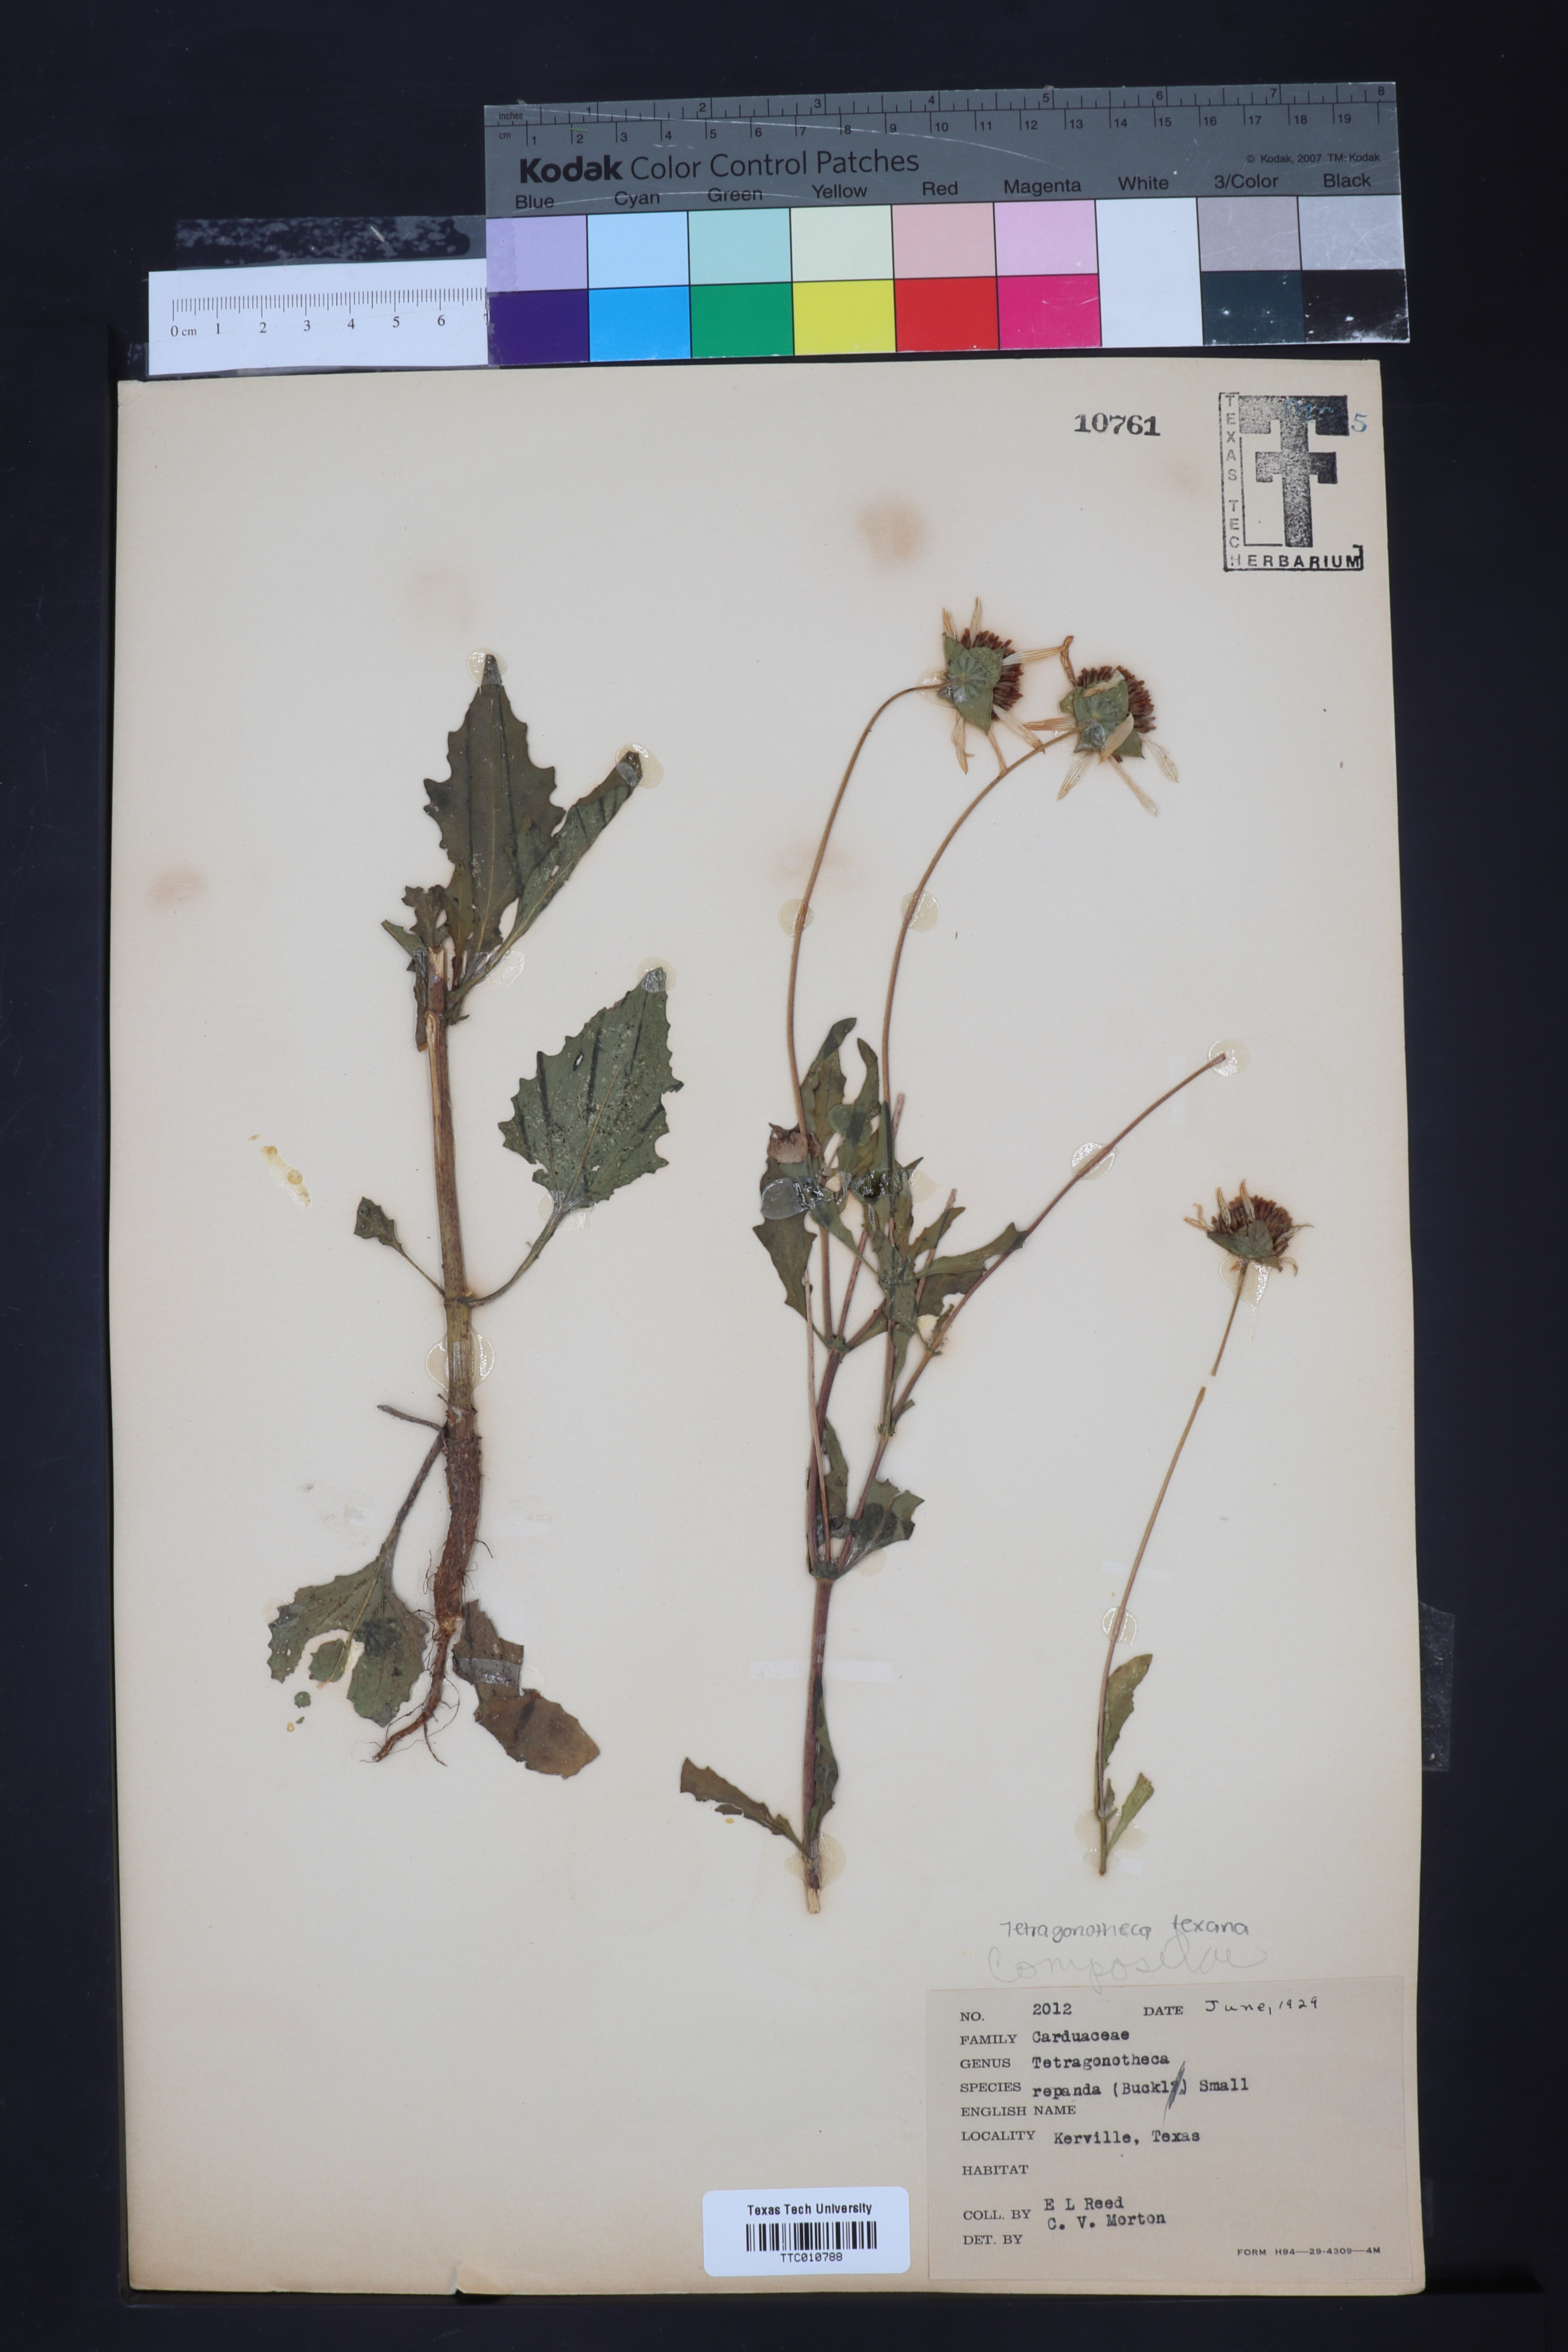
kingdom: Plantae
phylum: Tracheophyta
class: Magnoliopsida
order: Asterales
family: Asteraceae
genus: Tetragonotheca
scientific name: Tetragonotheca repanda
